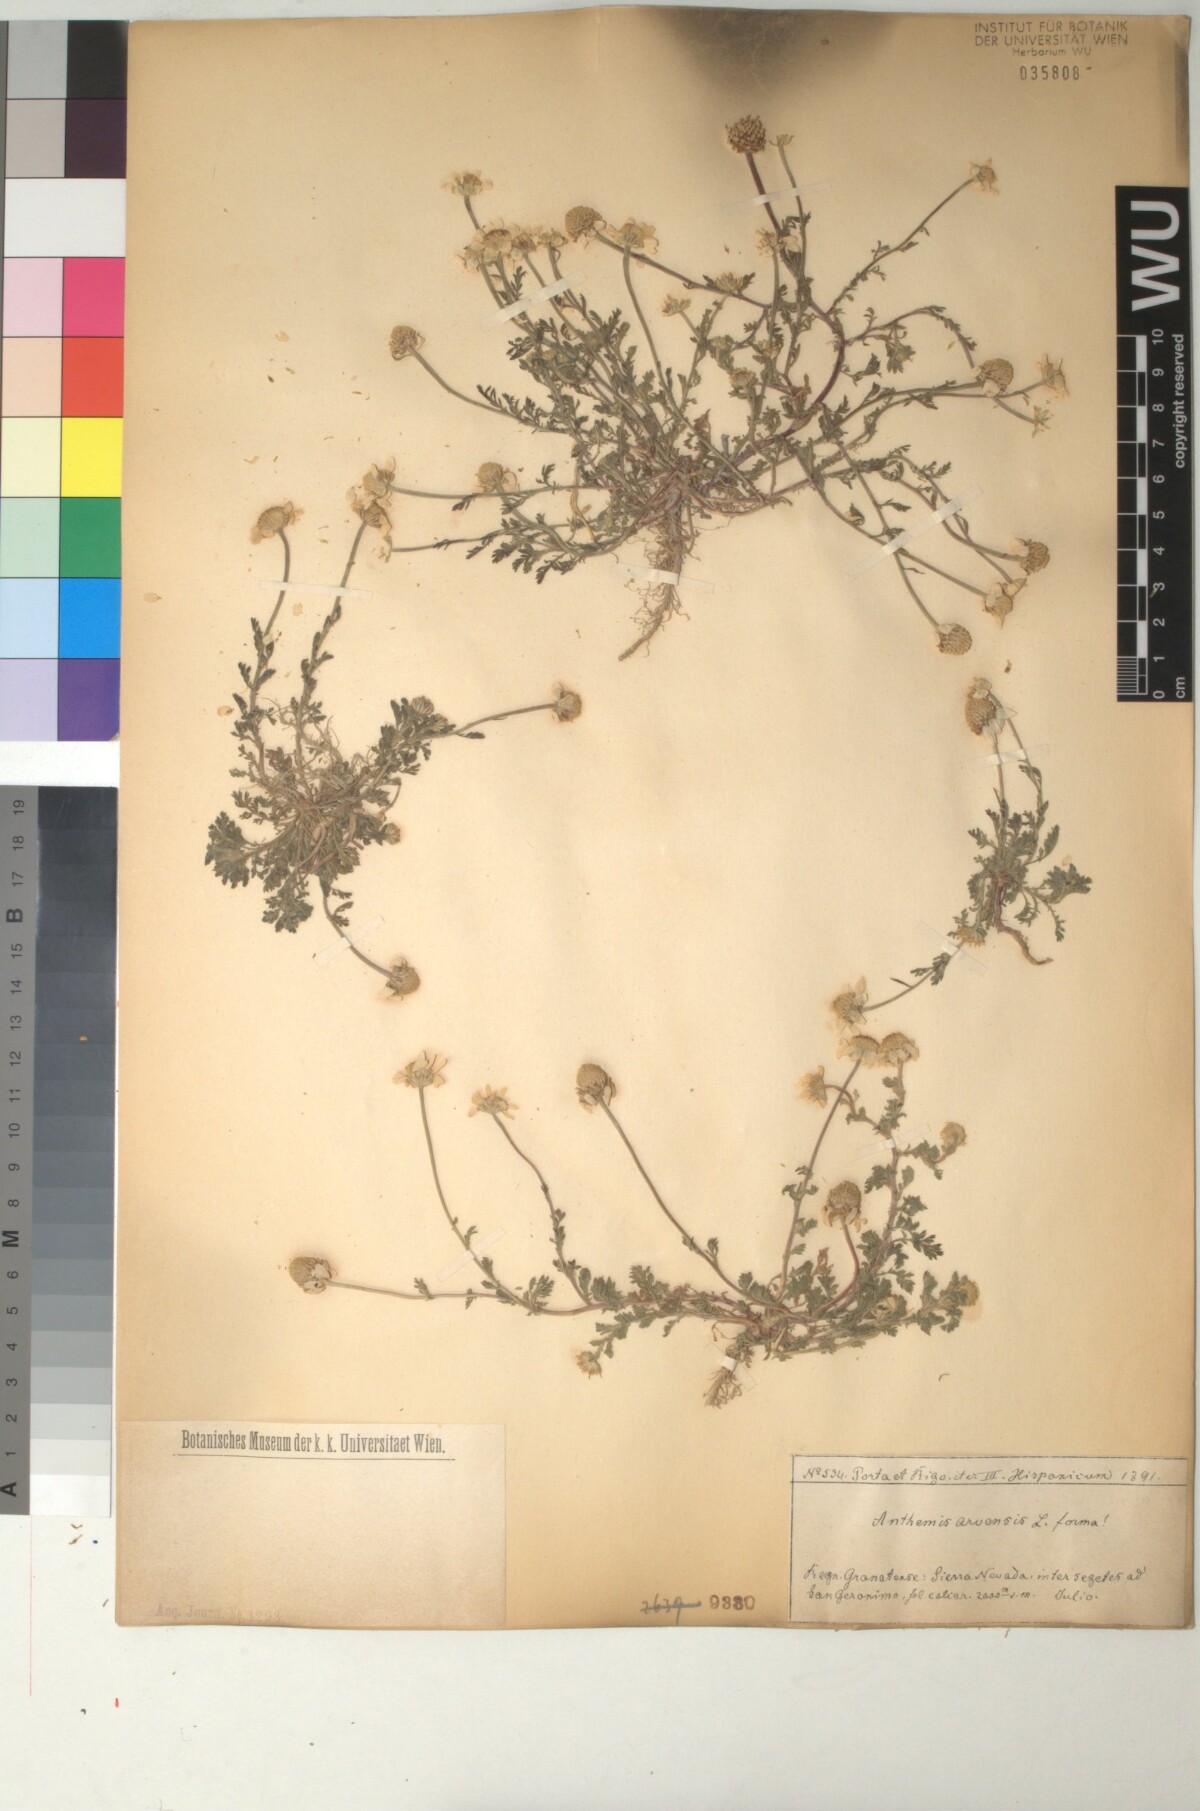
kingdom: Plantae
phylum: Tracheophyta
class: Magnoliopsida
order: Asterales
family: Asteraceae
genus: Anthemis
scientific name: Anthemis arvensis
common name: Corn chamomile
